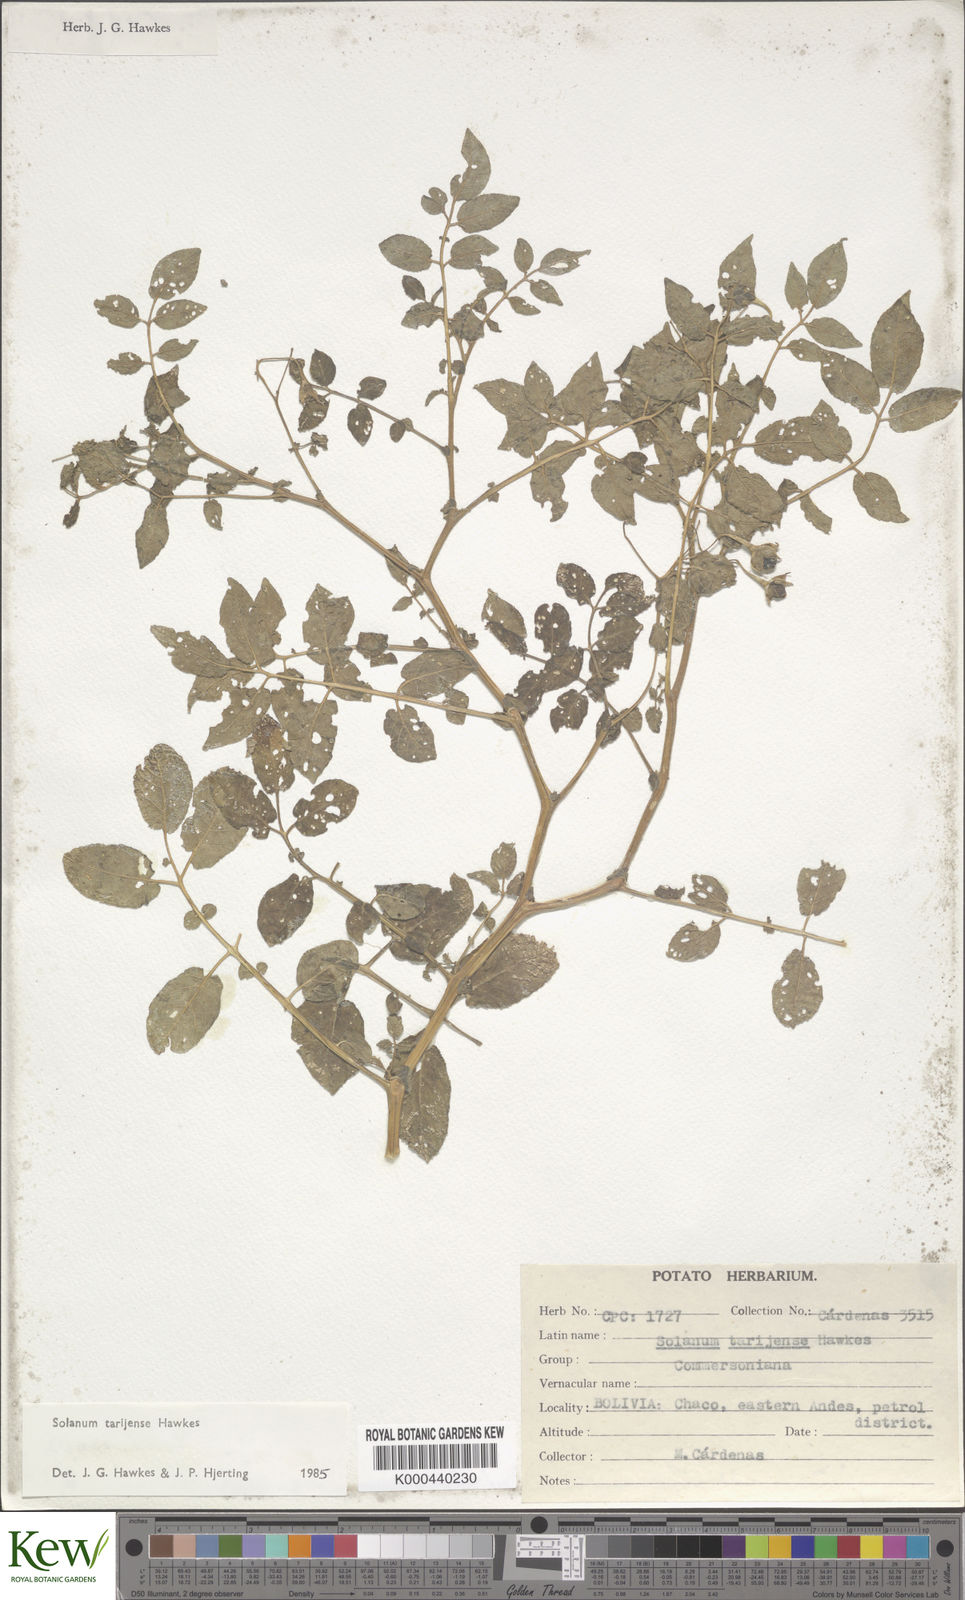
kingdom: Plantae
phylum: Tracheophyta
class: Magnoliopsida
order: Solanales
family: Solanaceae
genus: Solanum
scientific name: Solanum tarijense
